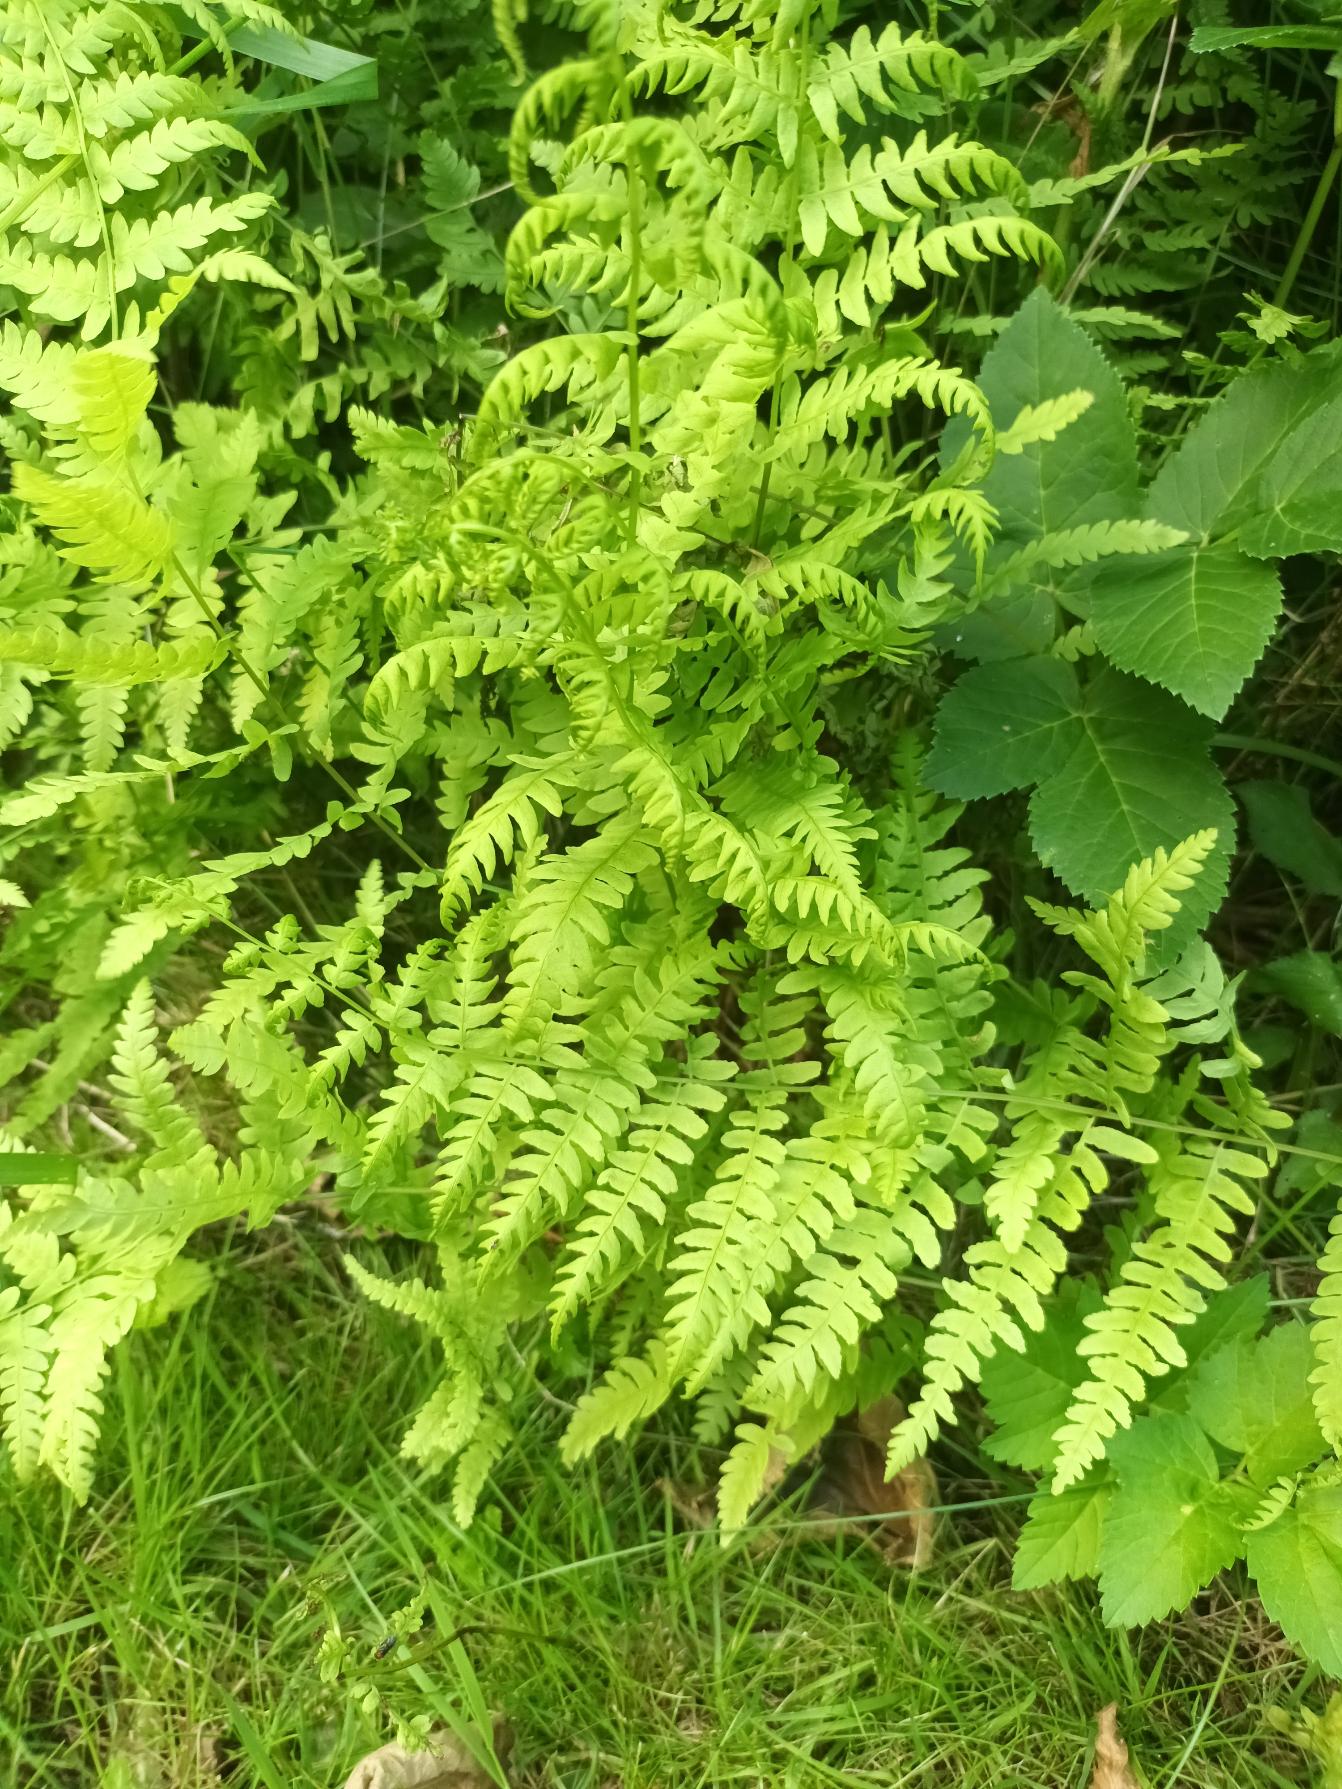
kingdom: Plantae
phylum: Tracheophyta
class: Polypodiopsida
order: Polypodiales
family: Thelypteridaceae
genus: Thelypteris
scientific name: Thelypteris palustris
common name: Kærmangeløv
